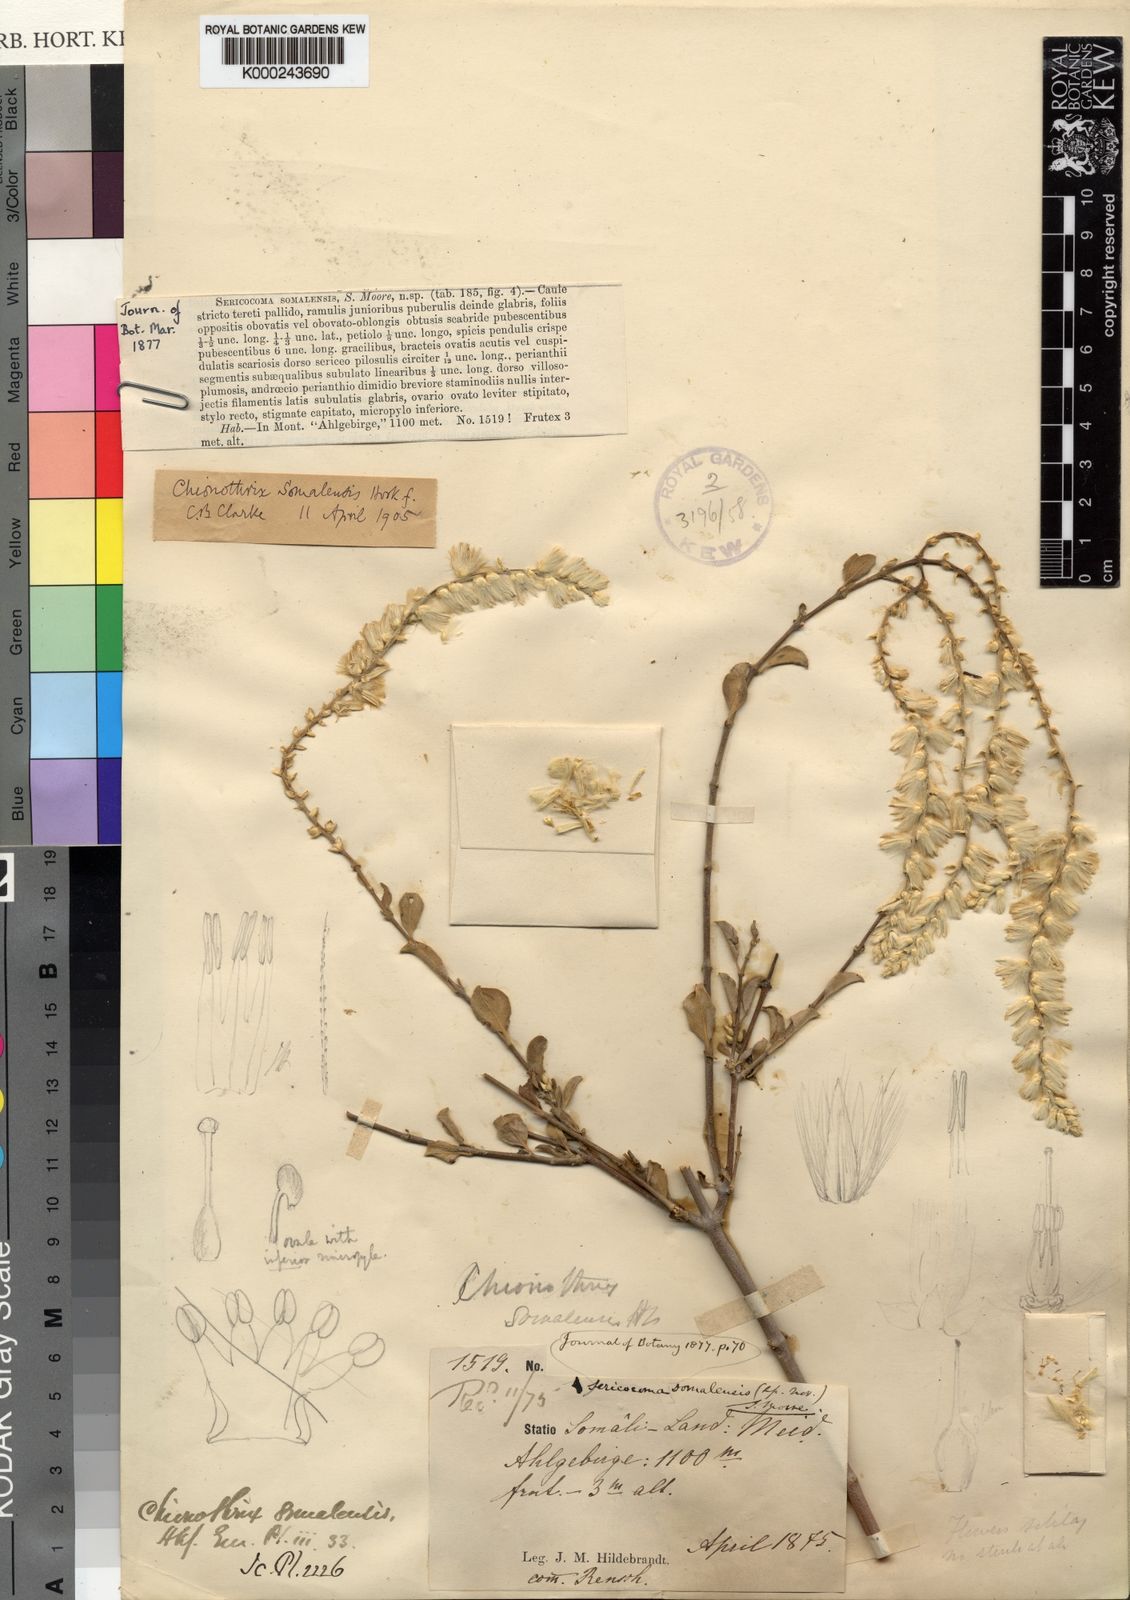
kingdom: Plantae
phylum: Tracheophyta
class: Magnoliopsida
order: Caryophyllales
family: Amaranthaceae
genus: Chionothrix
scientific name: Chionothrix somalensis
